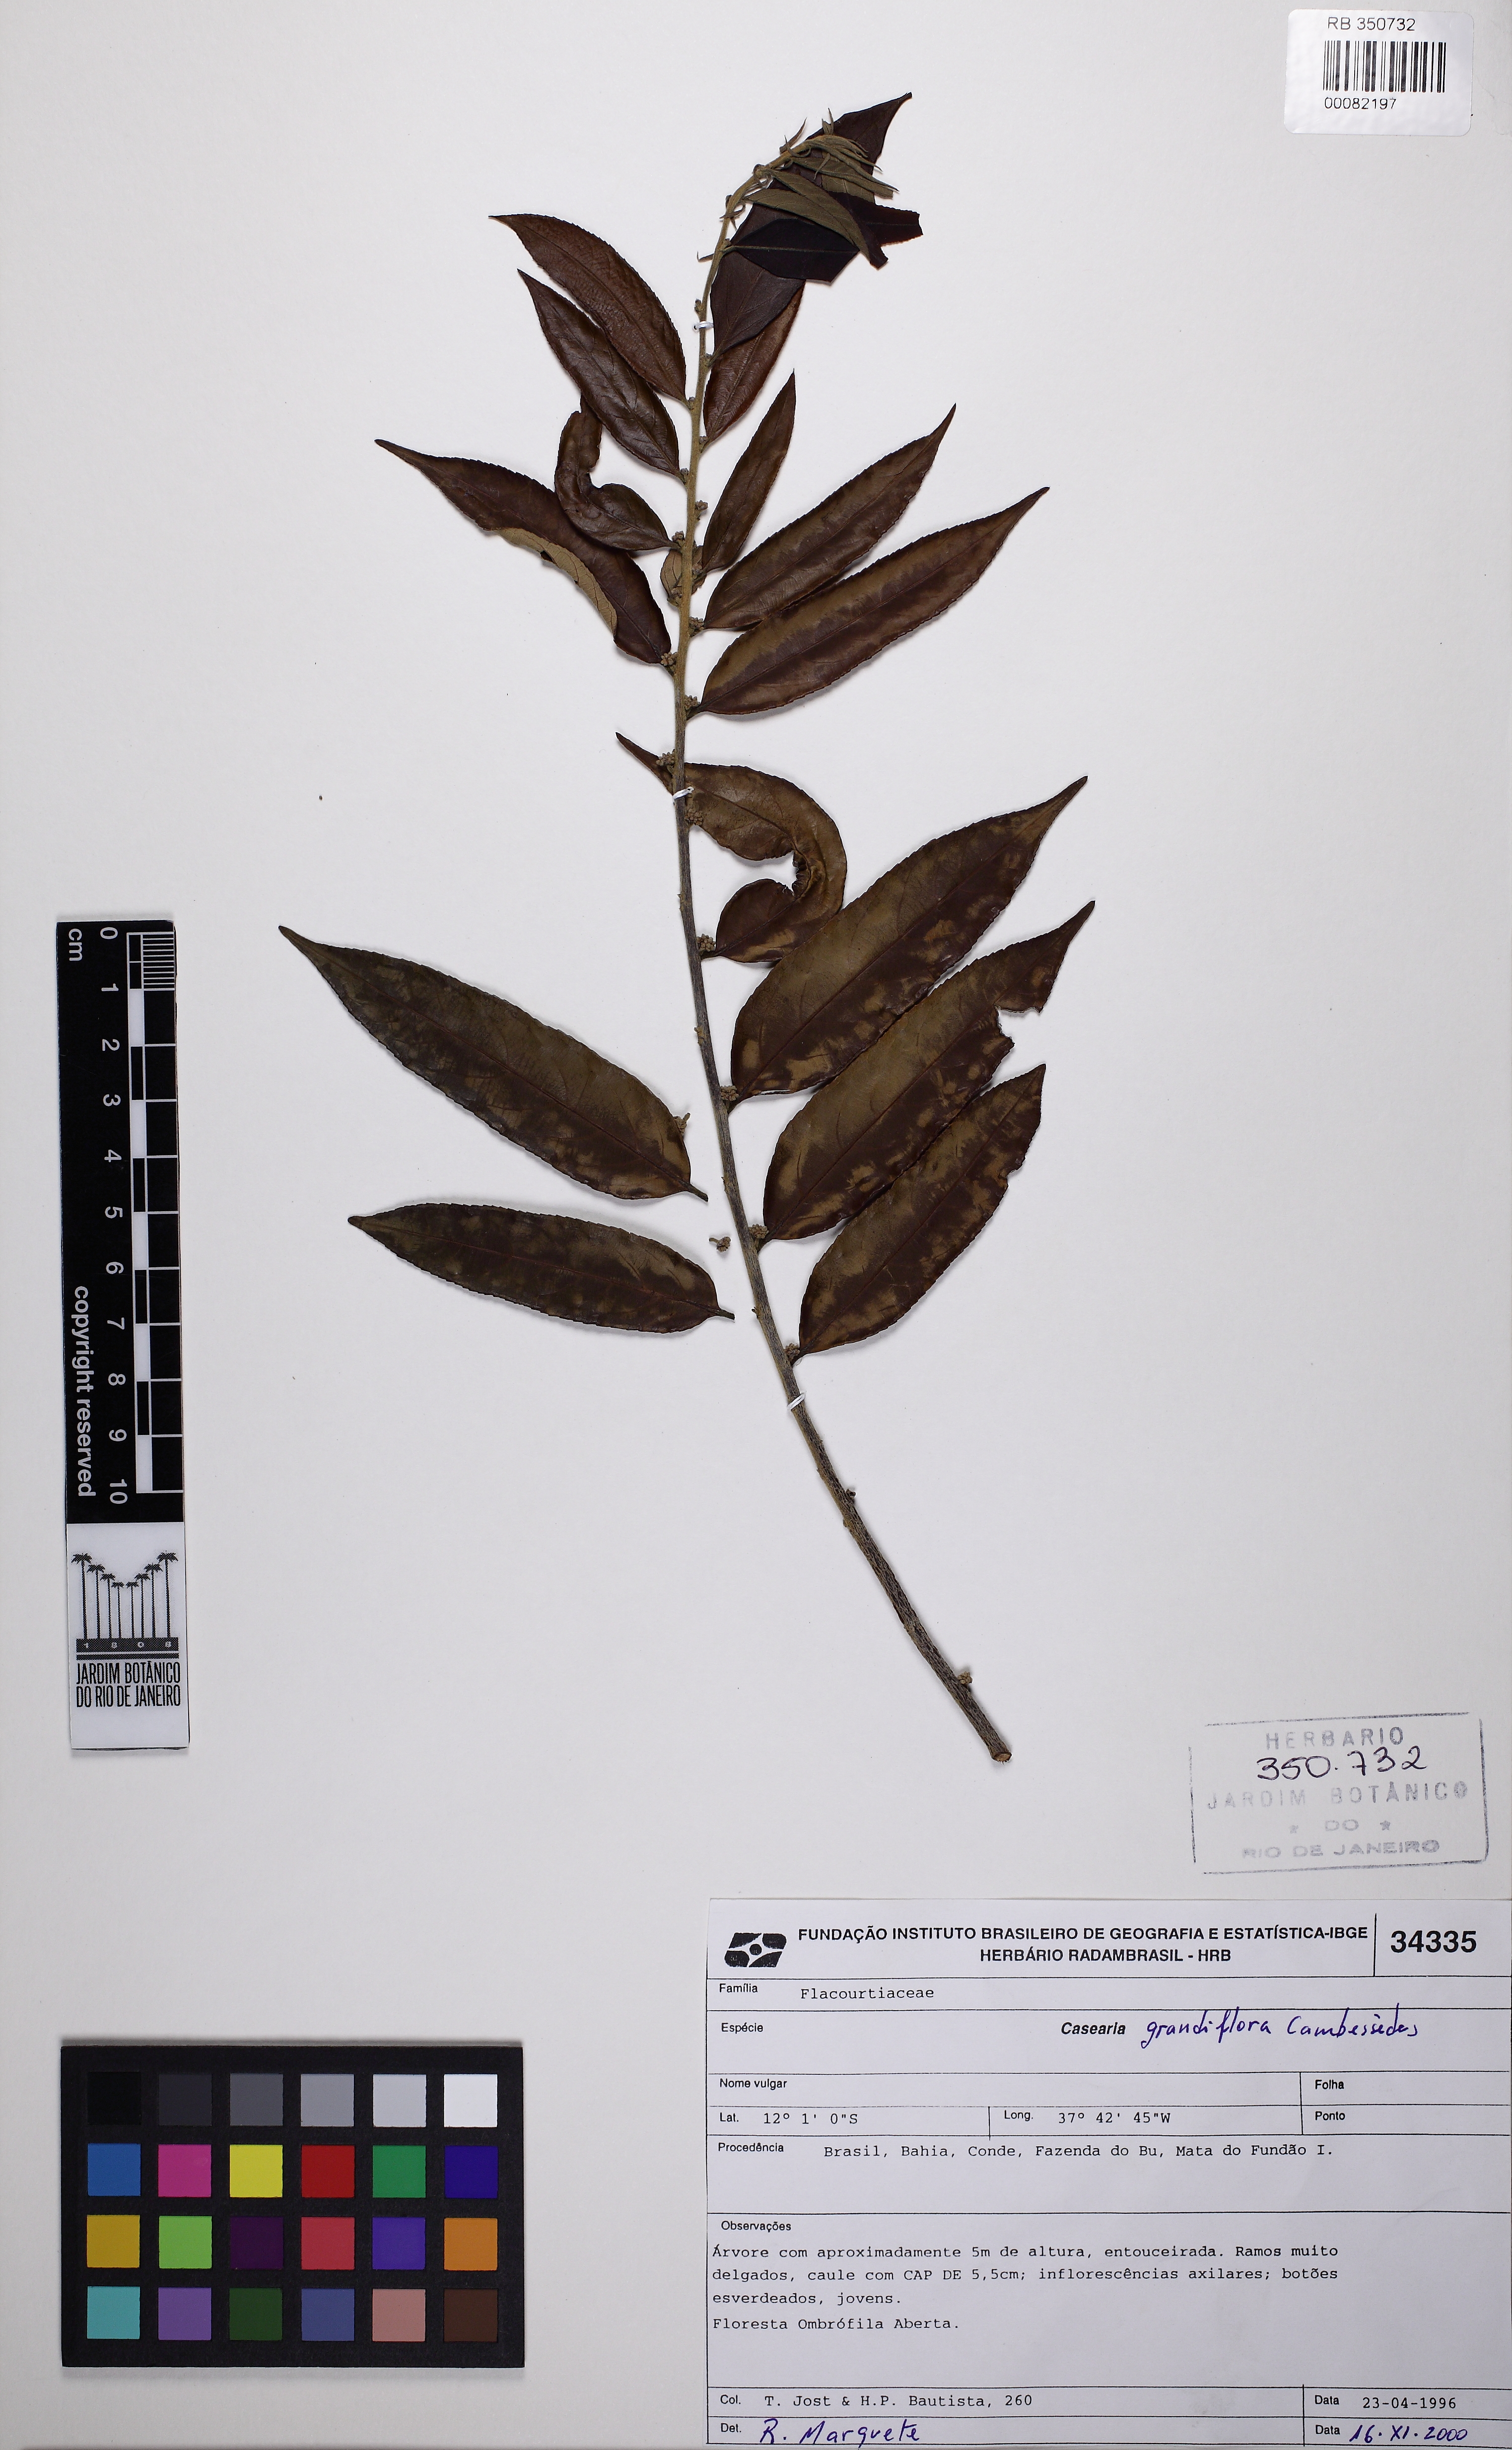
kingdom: Plantae
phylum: Tracheophyta
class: Magnoliopsida
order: Malpighiales
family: Salicaceae
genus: Casearia
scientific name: Casearia grandiflora
